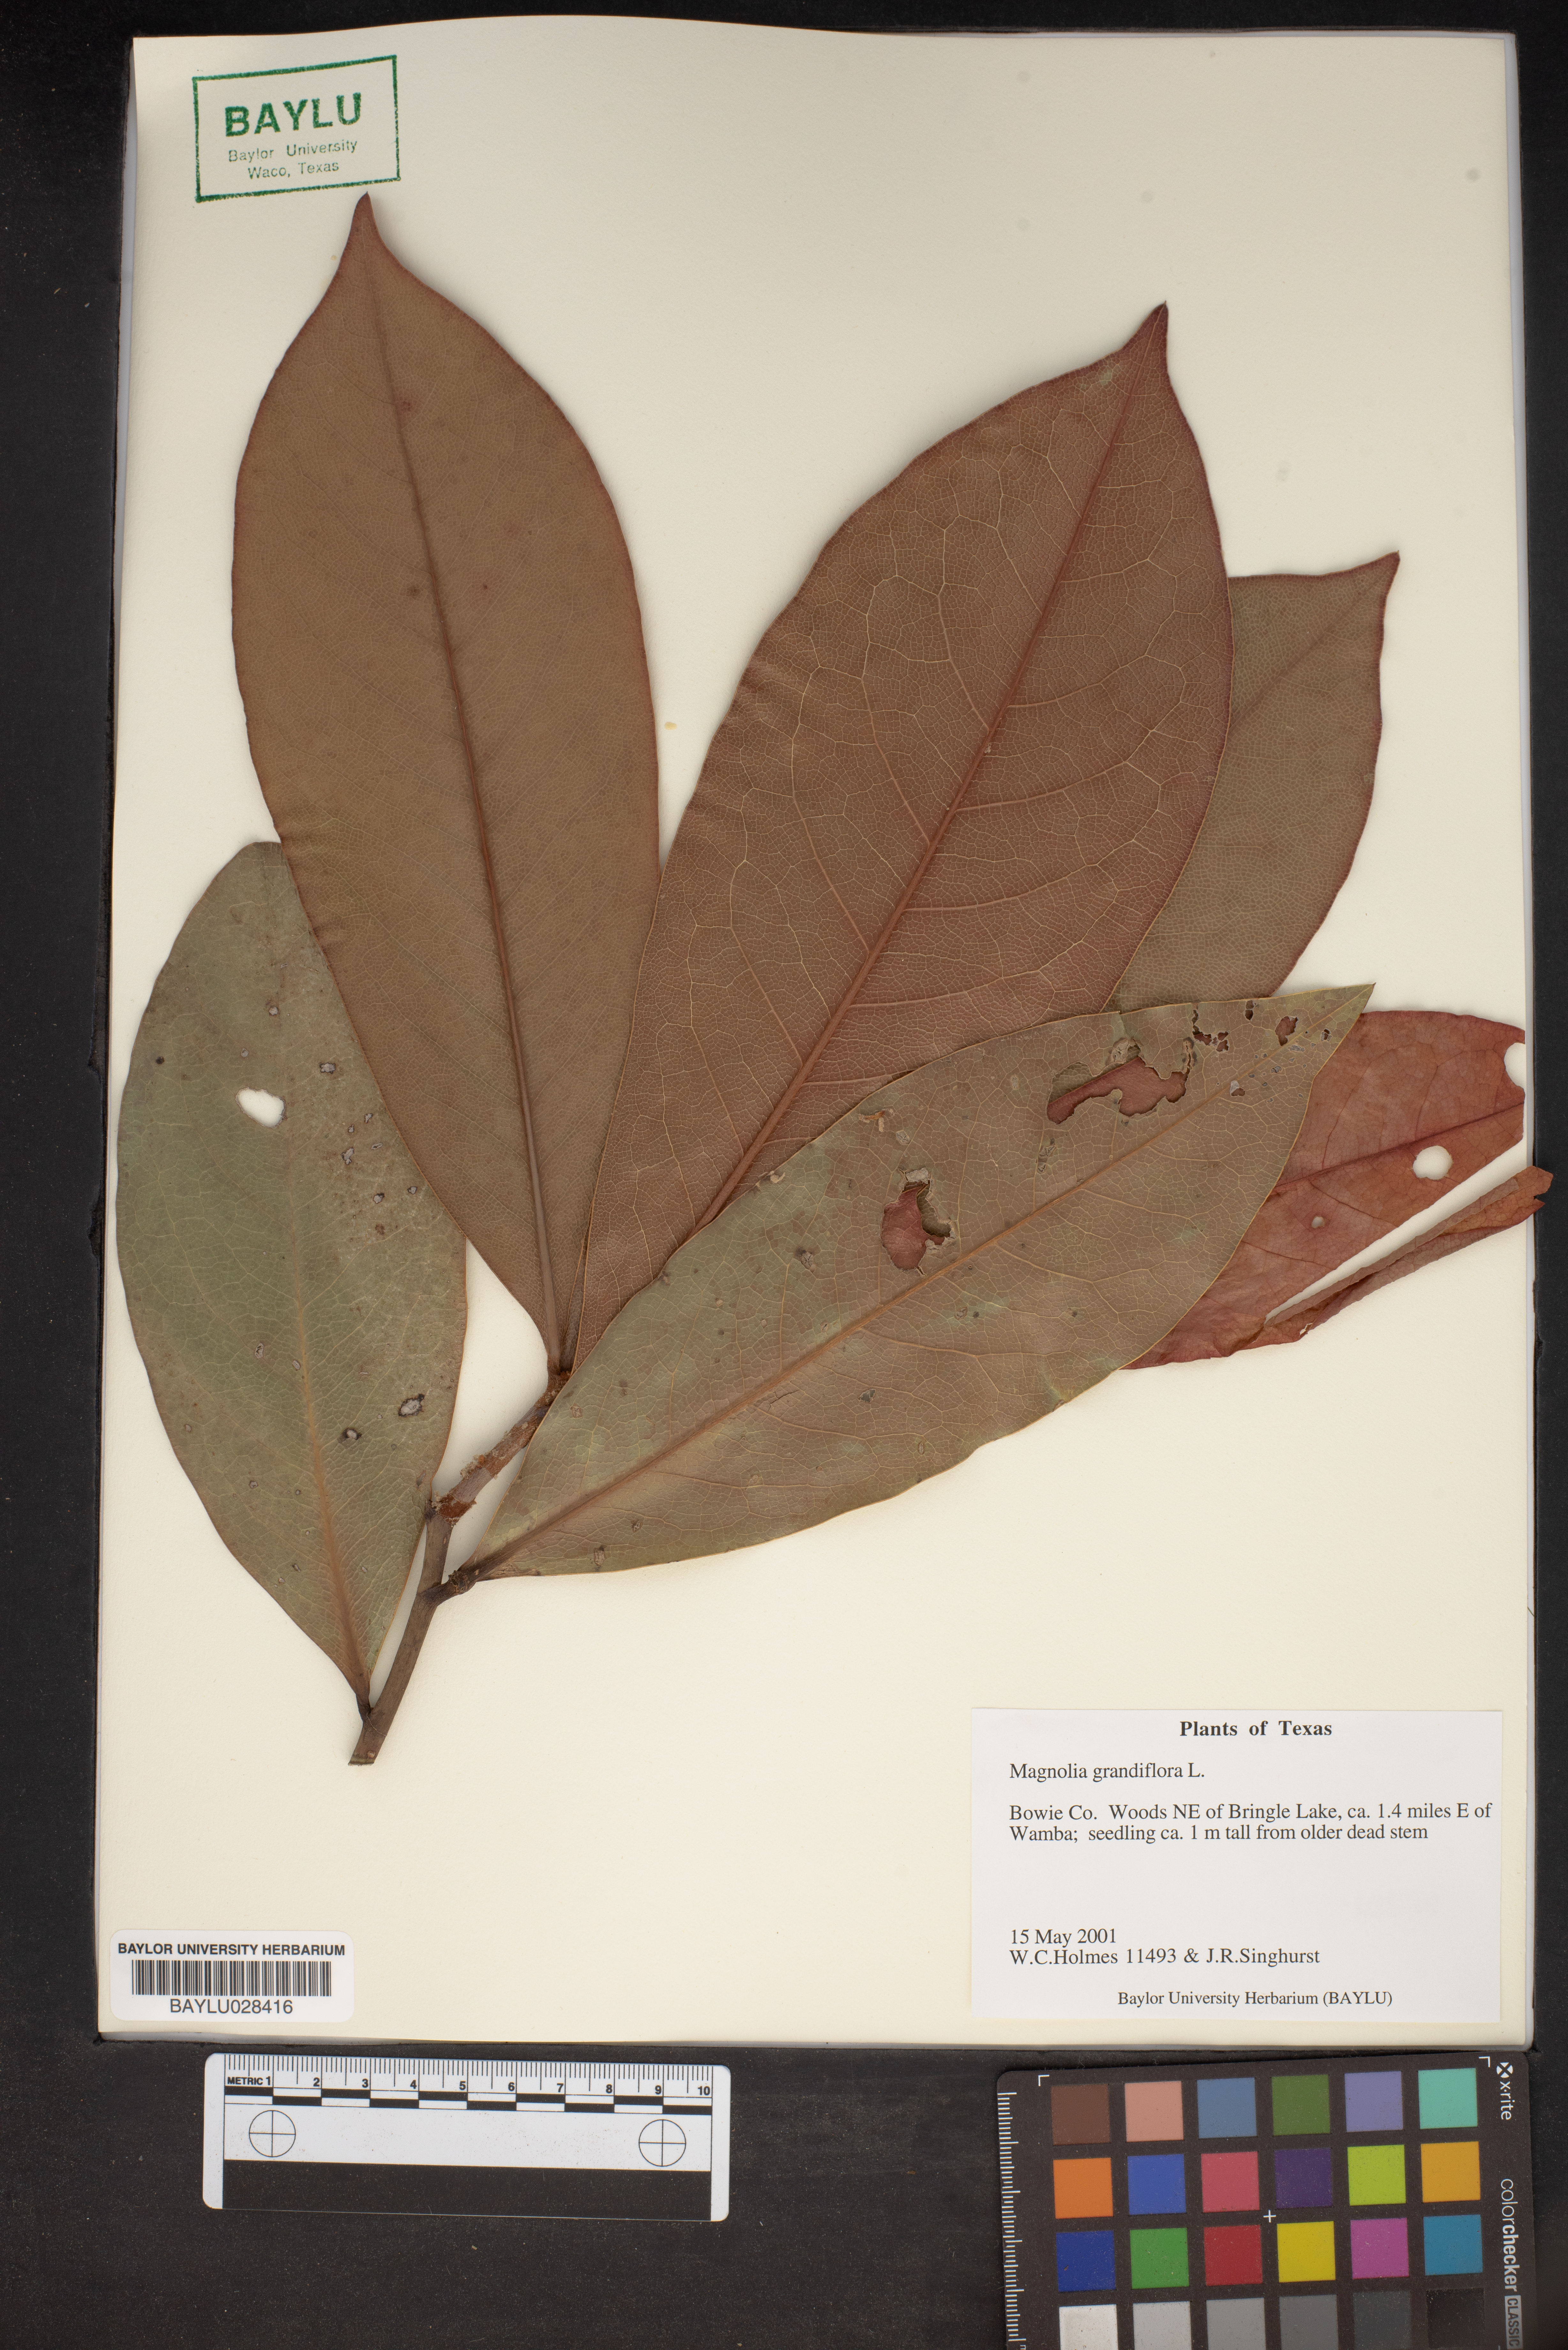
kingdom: Plantae
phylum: Tracheophyta
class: Magnoliopsida
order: Magnoliales
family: Magnoliaceae
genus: Magnolia
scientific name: Magnolia grandiflora
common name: Southern magnolia
